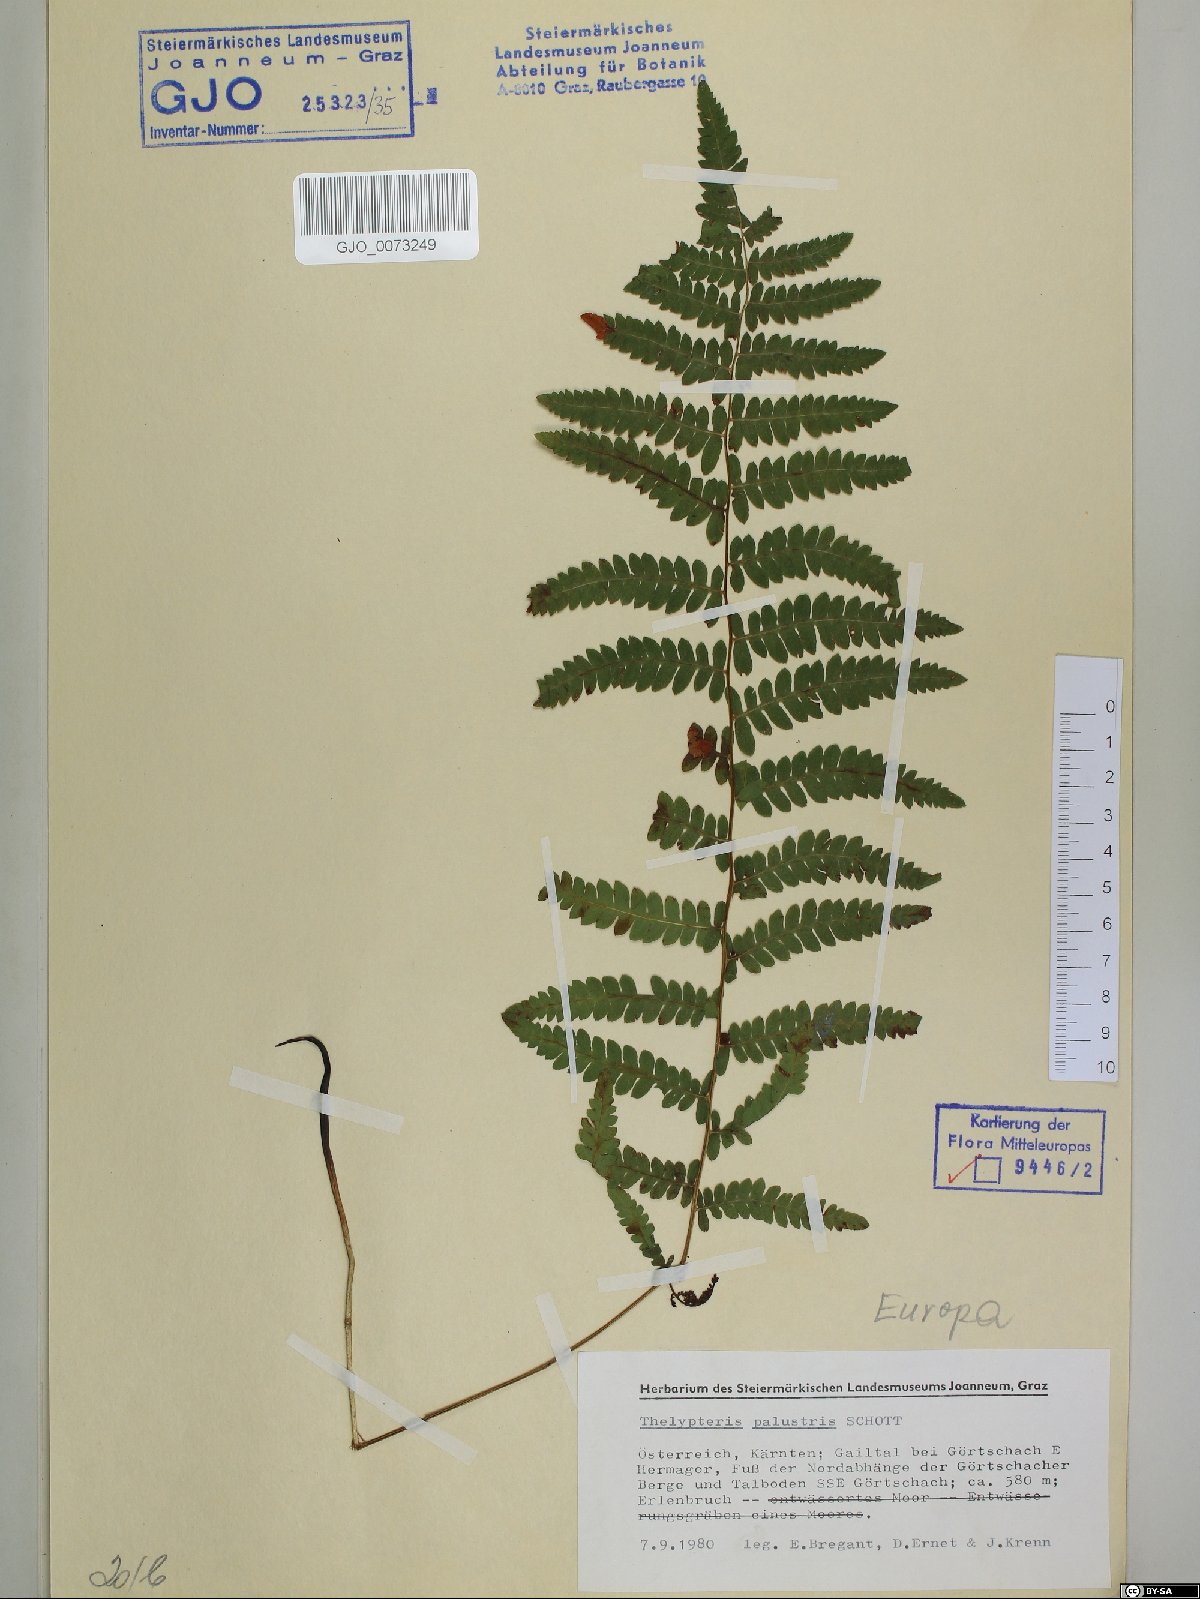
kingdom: Plantae
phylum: Tracheophyta
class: Polypodiopsida
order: Polypodiales
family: Thelypteridaceae
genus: Thelypteris
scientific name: Thelypteris palustris
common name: Marsh fern
